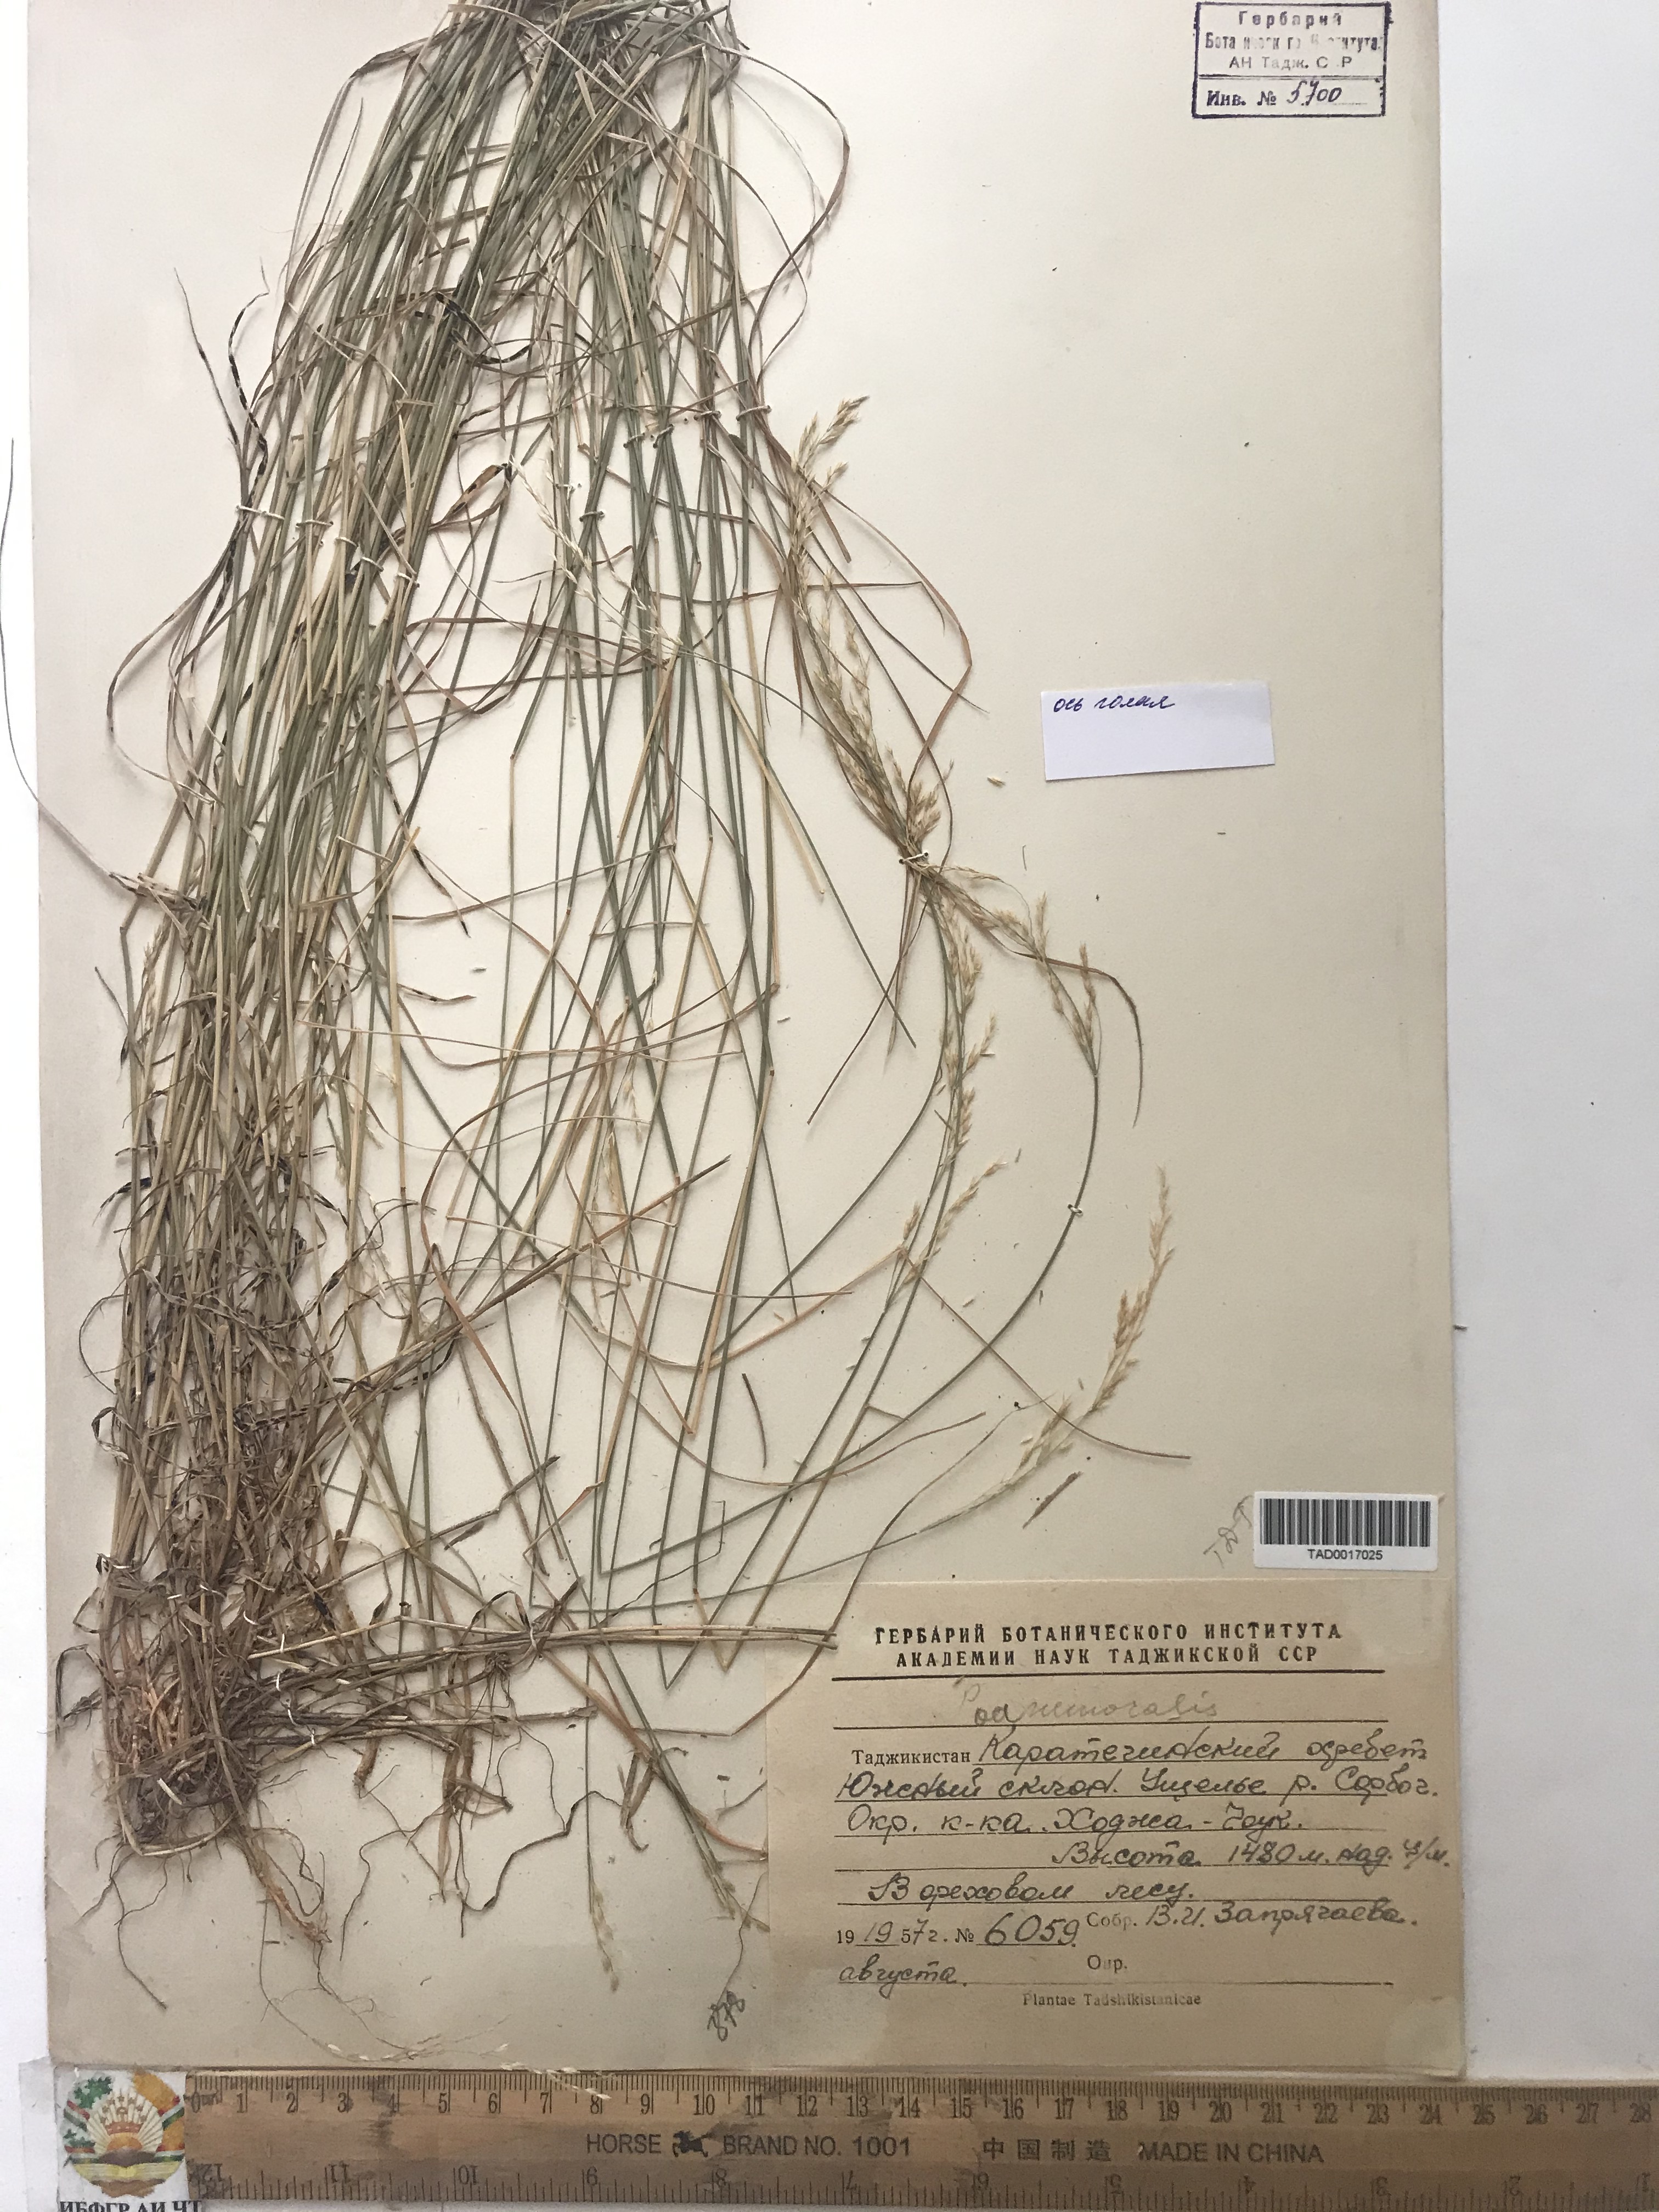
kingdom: Plantae
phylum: Tracheophyta
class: Liliopsida
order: Poales
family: Poaceae
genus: Poa
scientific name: Poa nemoralis
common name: Wood bluegrass
